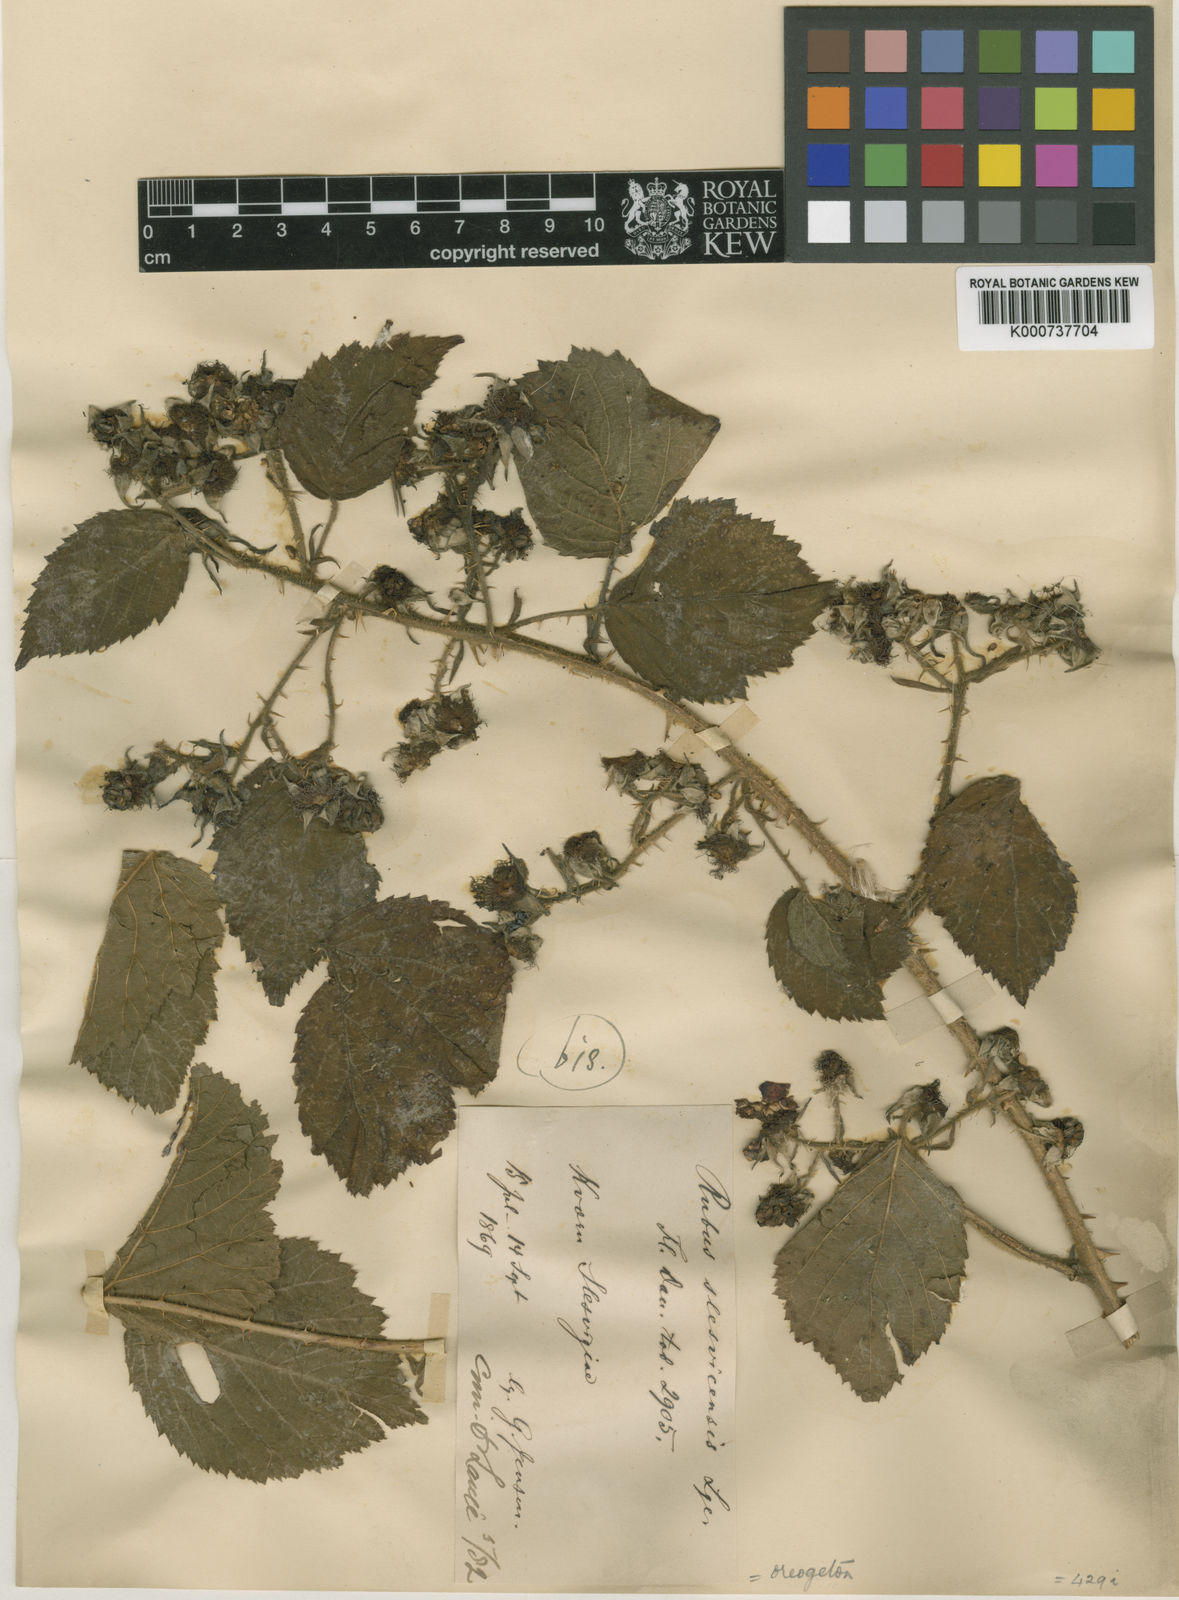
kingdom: Plantae
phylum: Tracheophyta
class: Magnoliopsida
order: Rosales
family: Rosaceae
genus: Rubus
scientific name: Rubus fabrimontanus
